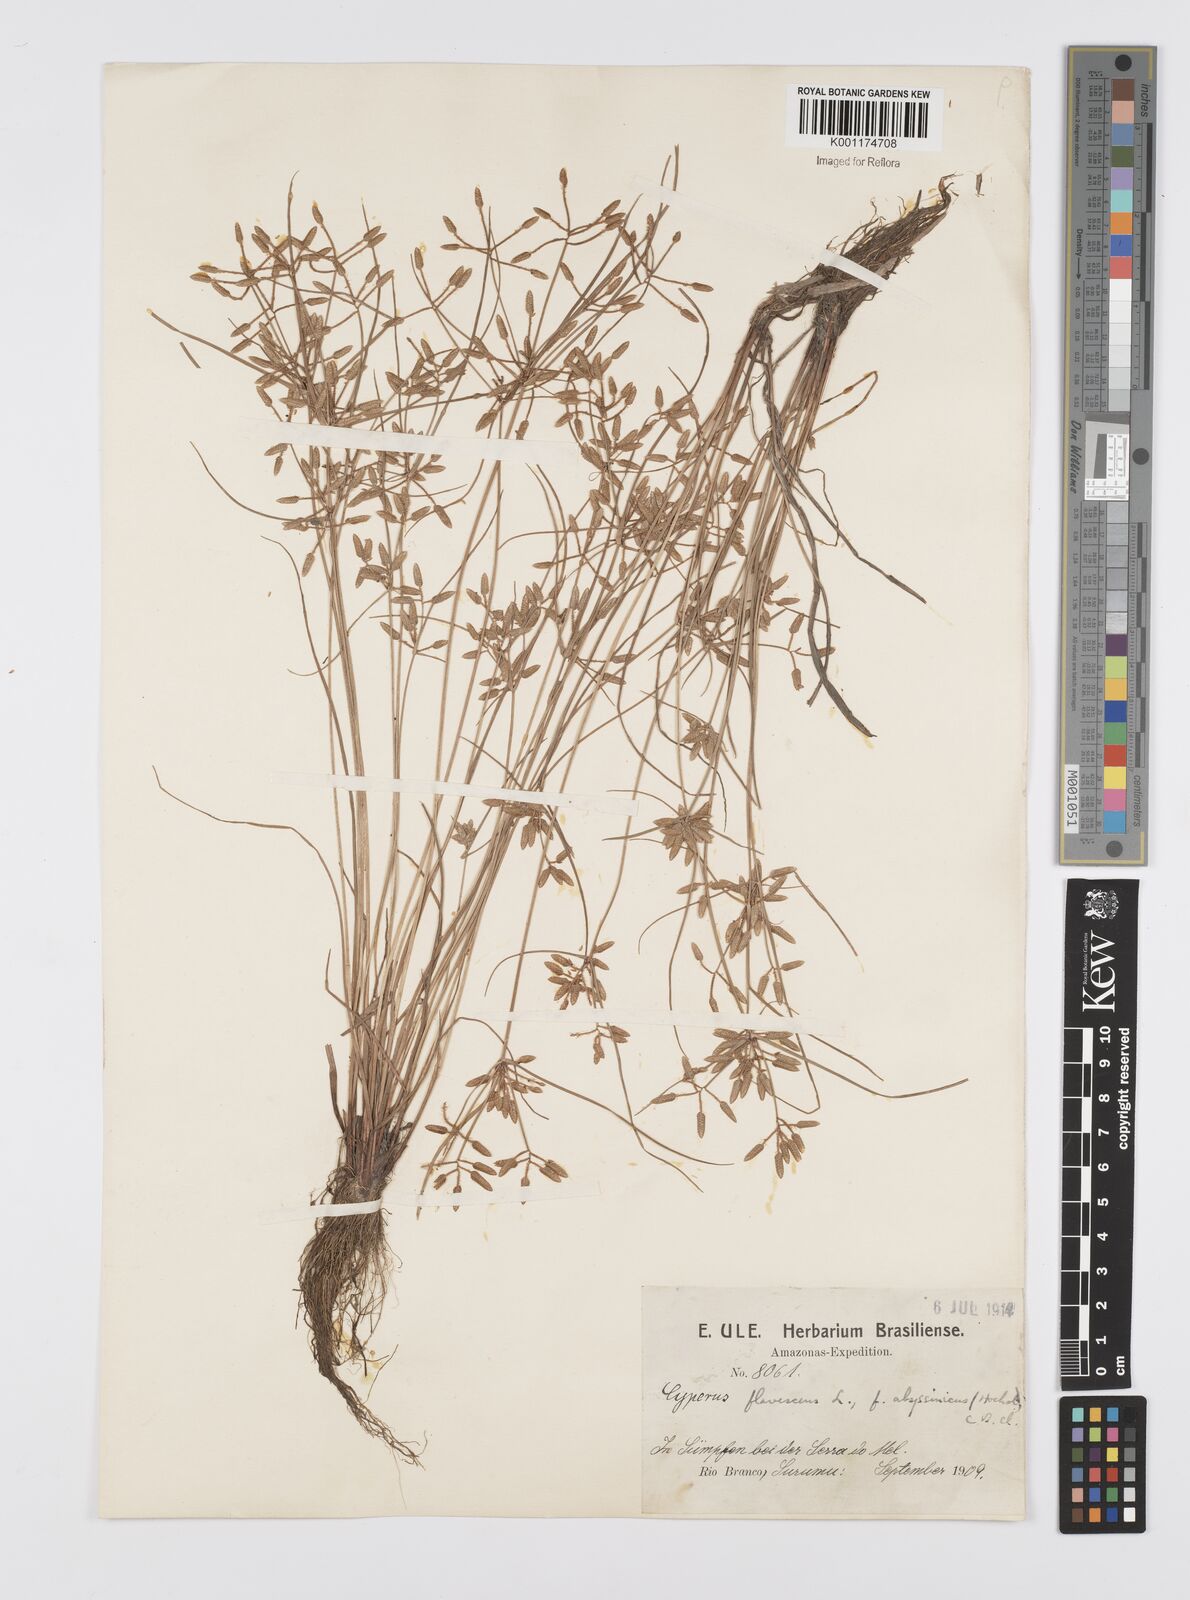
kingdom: Plantae
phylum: Tracheophyta
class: Liliopsida
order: Poales
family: Cyperaceae
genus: Cyperus
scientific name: Cyperus flavescens
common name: Yellow galingale
